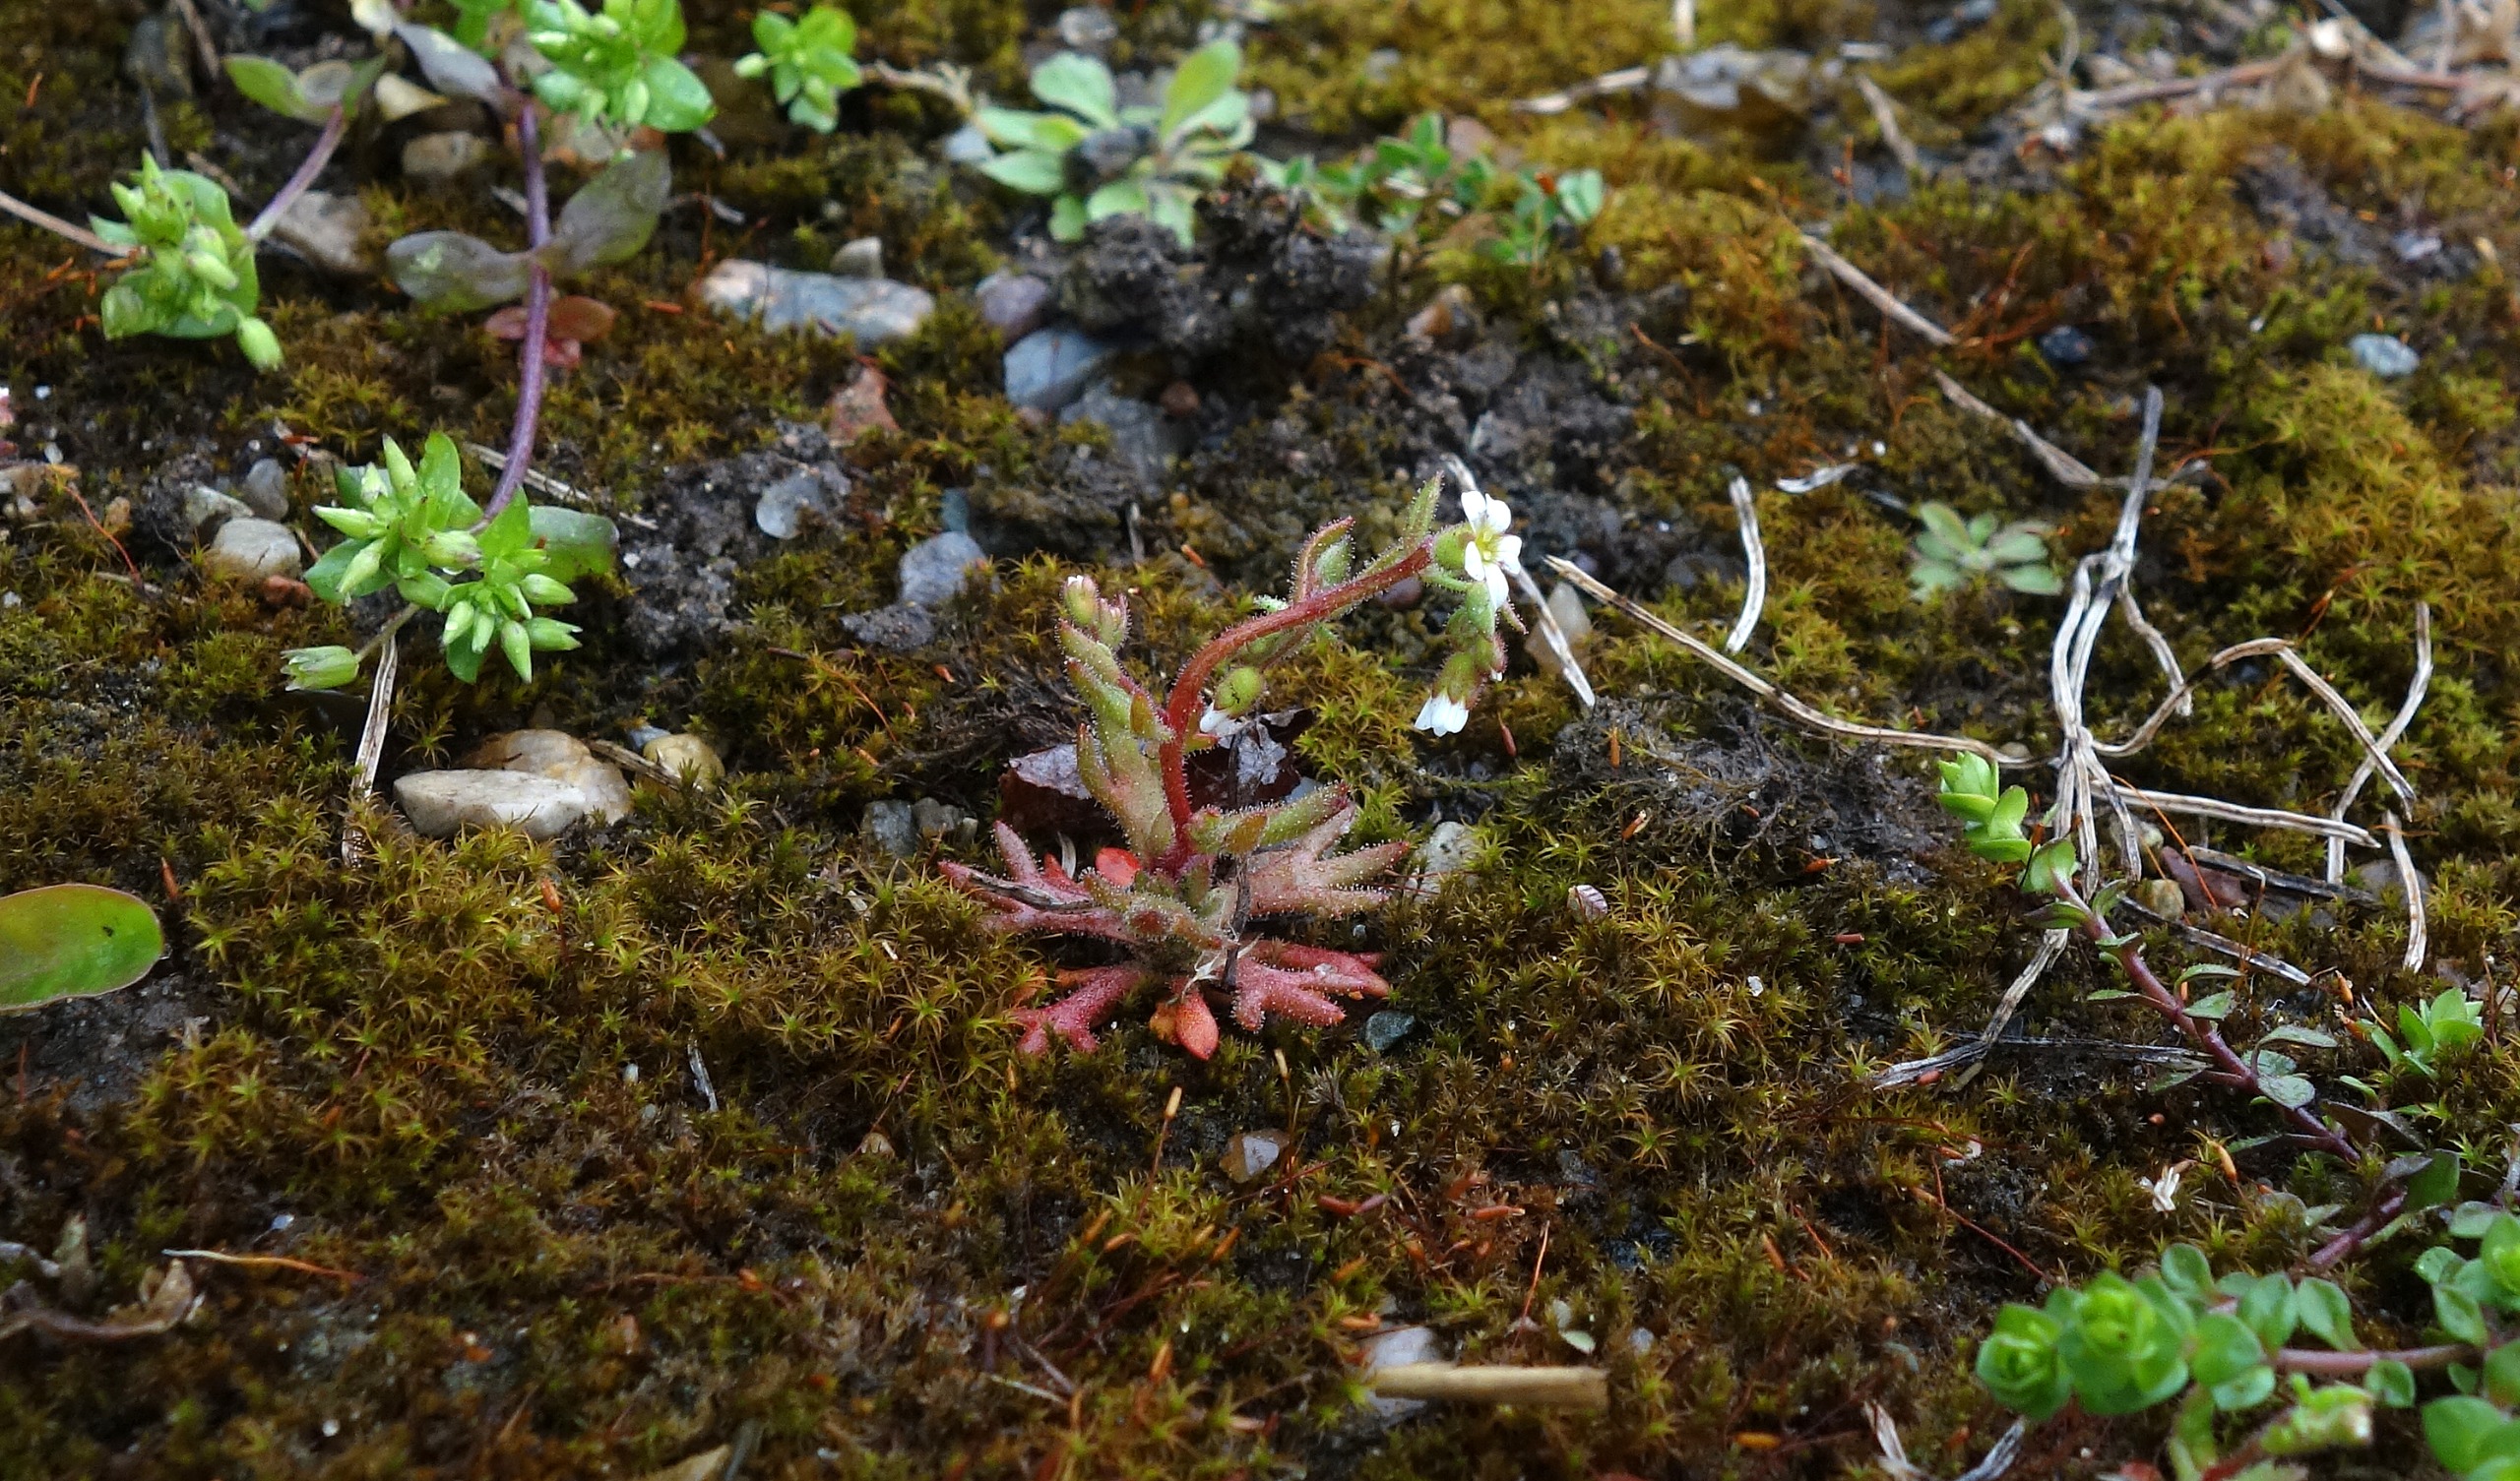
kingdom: Plantae
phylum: Tracheophyta
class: Magnoliopsida
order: Saxifragales
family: Saxifragaceae
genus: Saxifraga
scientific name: Saxifraga tridactylites
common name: Trekløft-stenbræk
